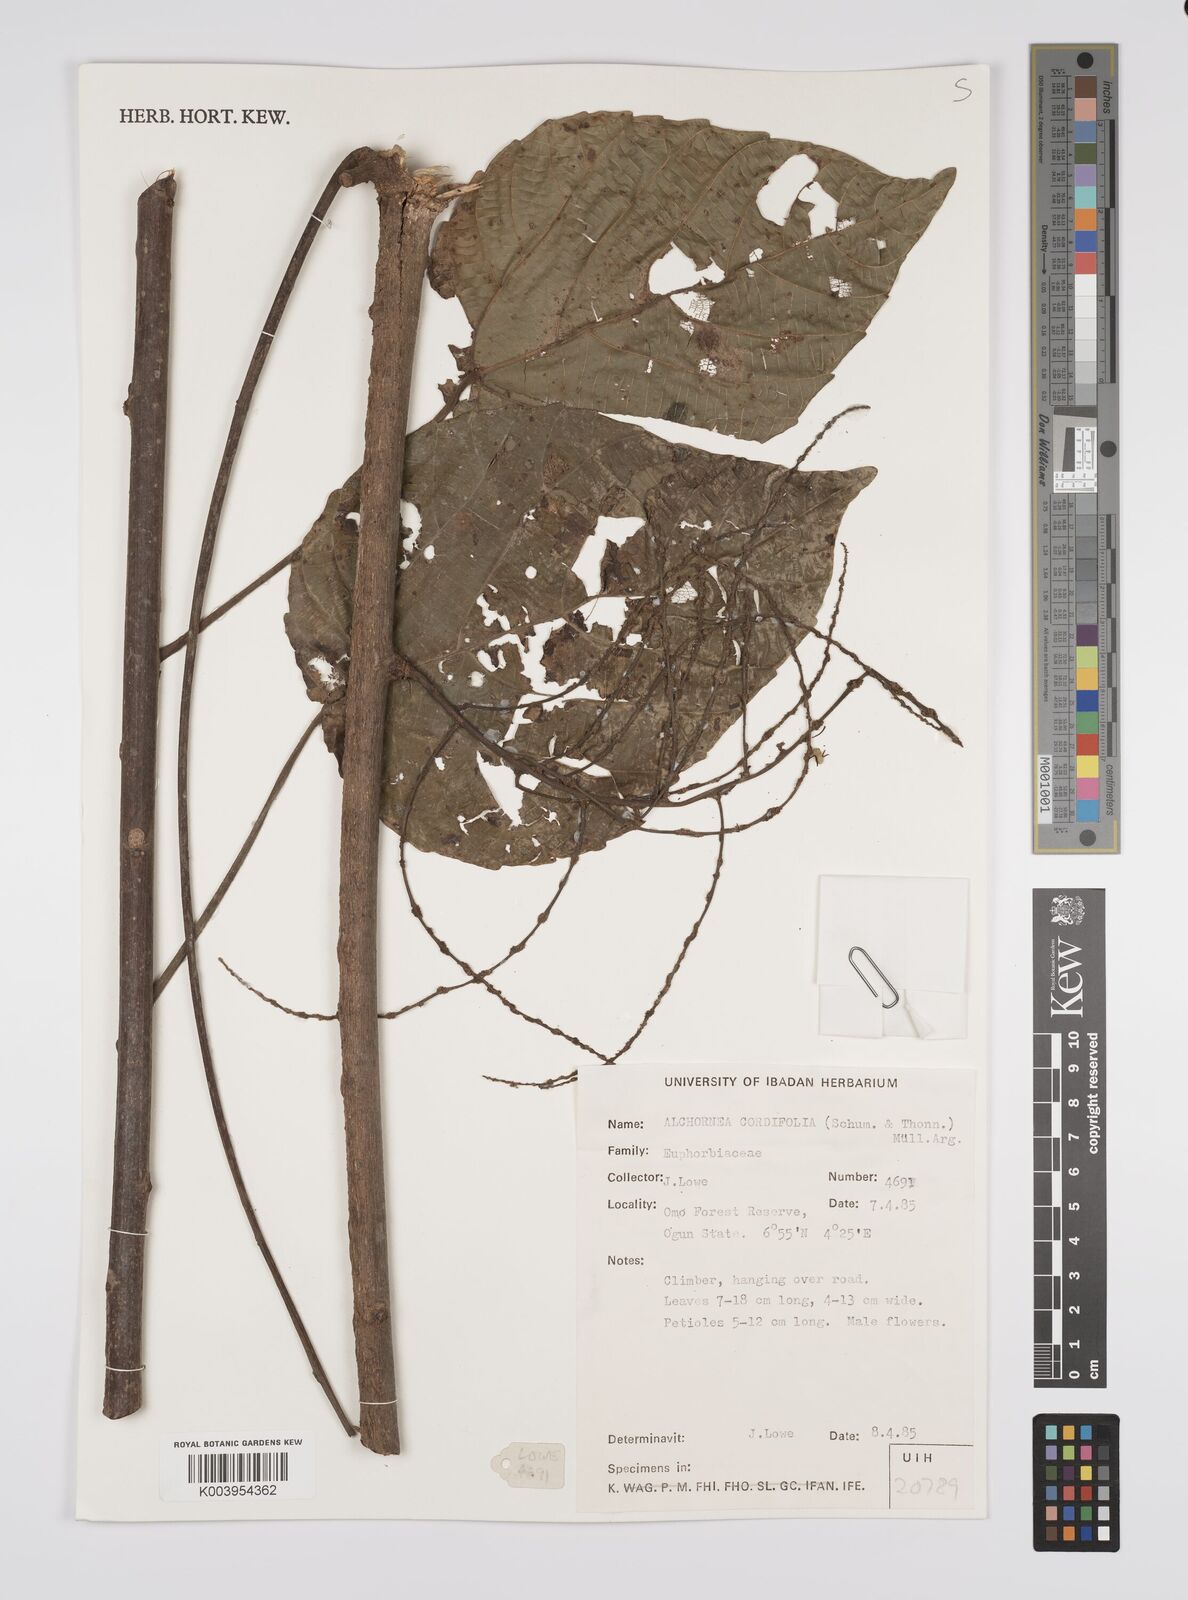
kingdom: Plantae
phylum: Tracheophyta
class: Magnoliopsida
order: Malpighiales
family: Euphorbiaceae
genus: Alchornea
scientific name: Alchornea cordifolia
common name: Christmasbush
